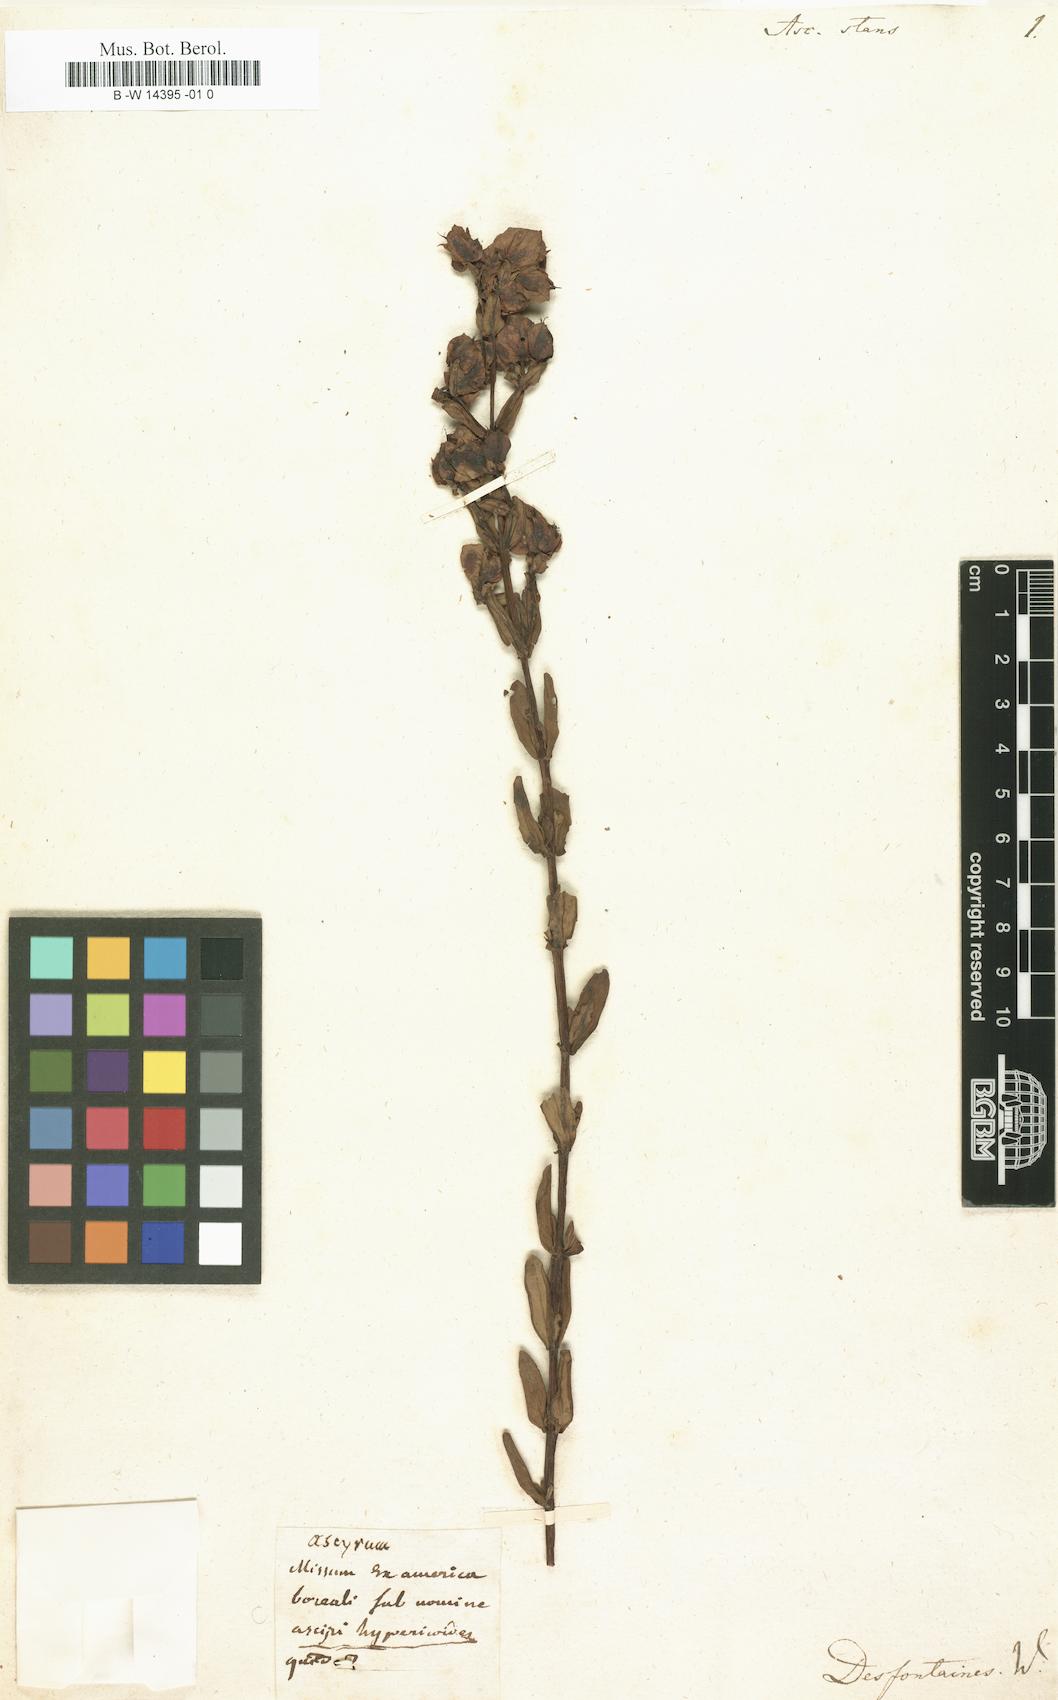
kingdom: Plantae
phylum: Tracheophyta
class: Magnoliopsida
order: Malpighiales
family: Hypericaceae
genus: Hypericum
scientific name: Hypericum crux-andreae
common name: St.-peter's-wort
